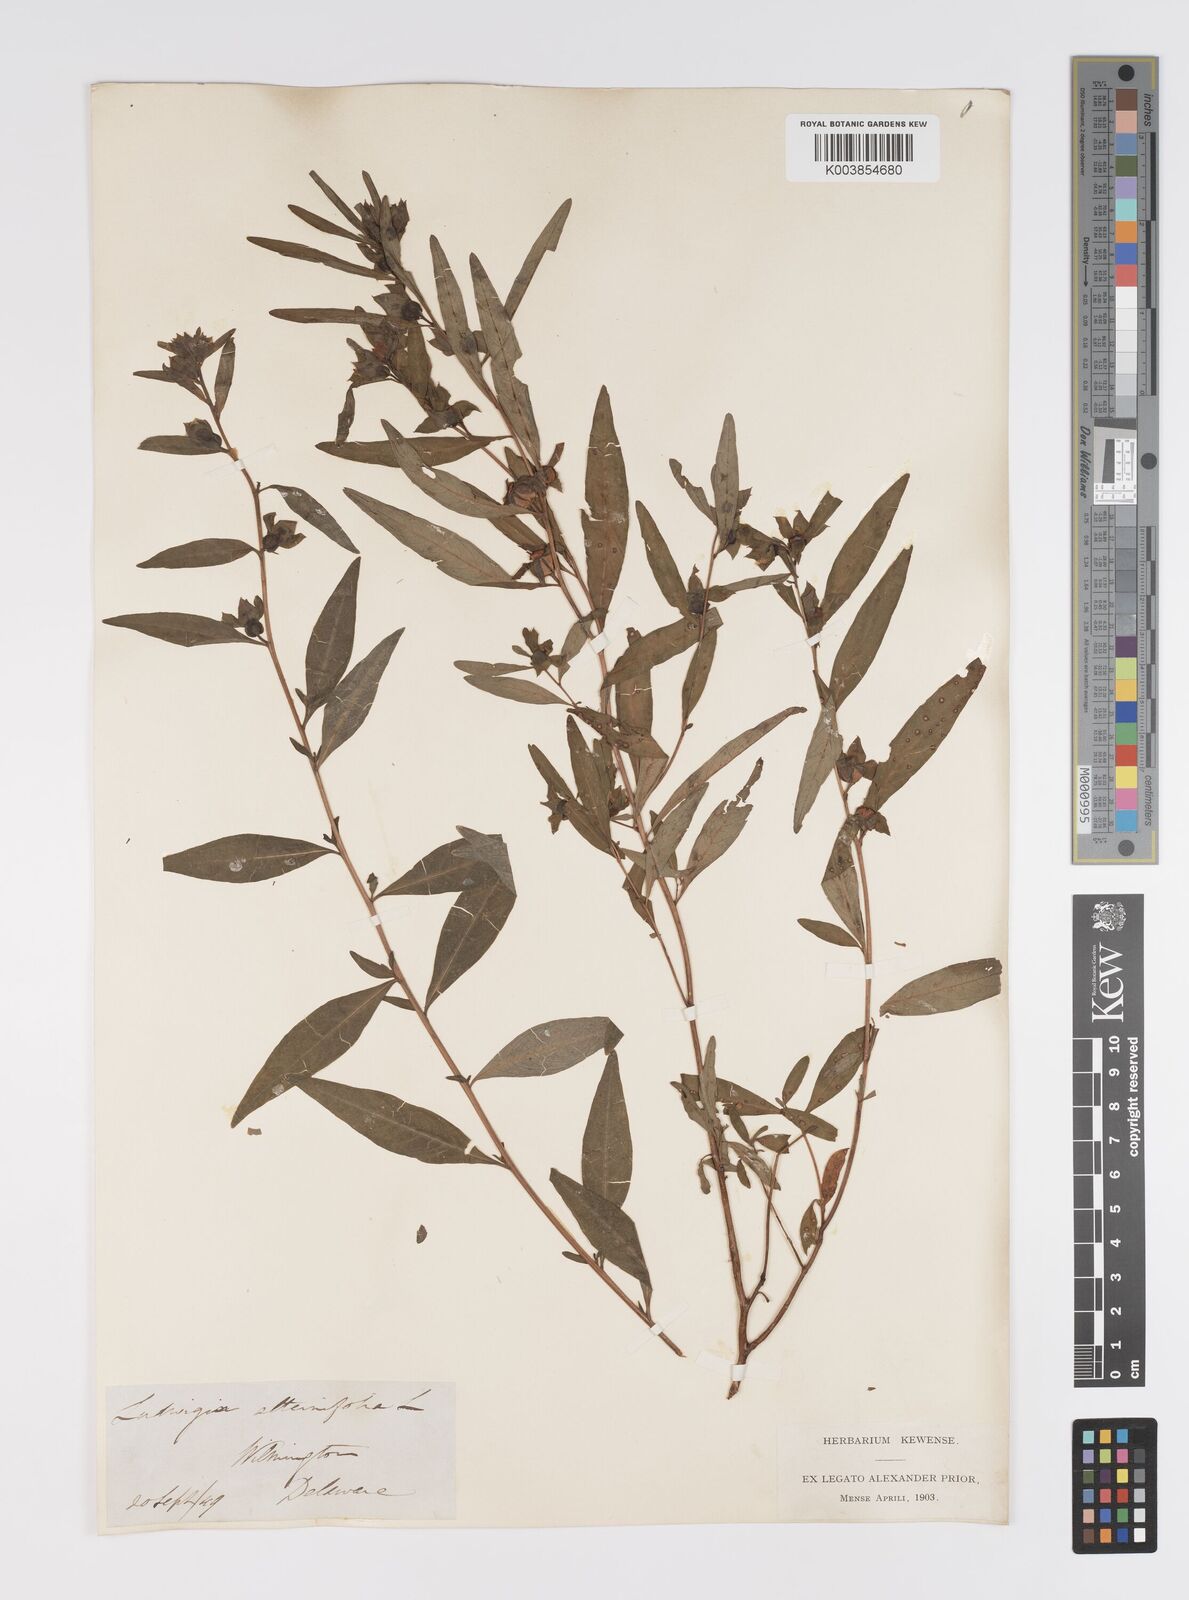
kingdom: Plantae
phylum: Tracheophyta
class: Magnoliopsida
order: Myrtales
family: Onagraceae
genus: Ludwigia
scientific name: Ludwigia virgata
